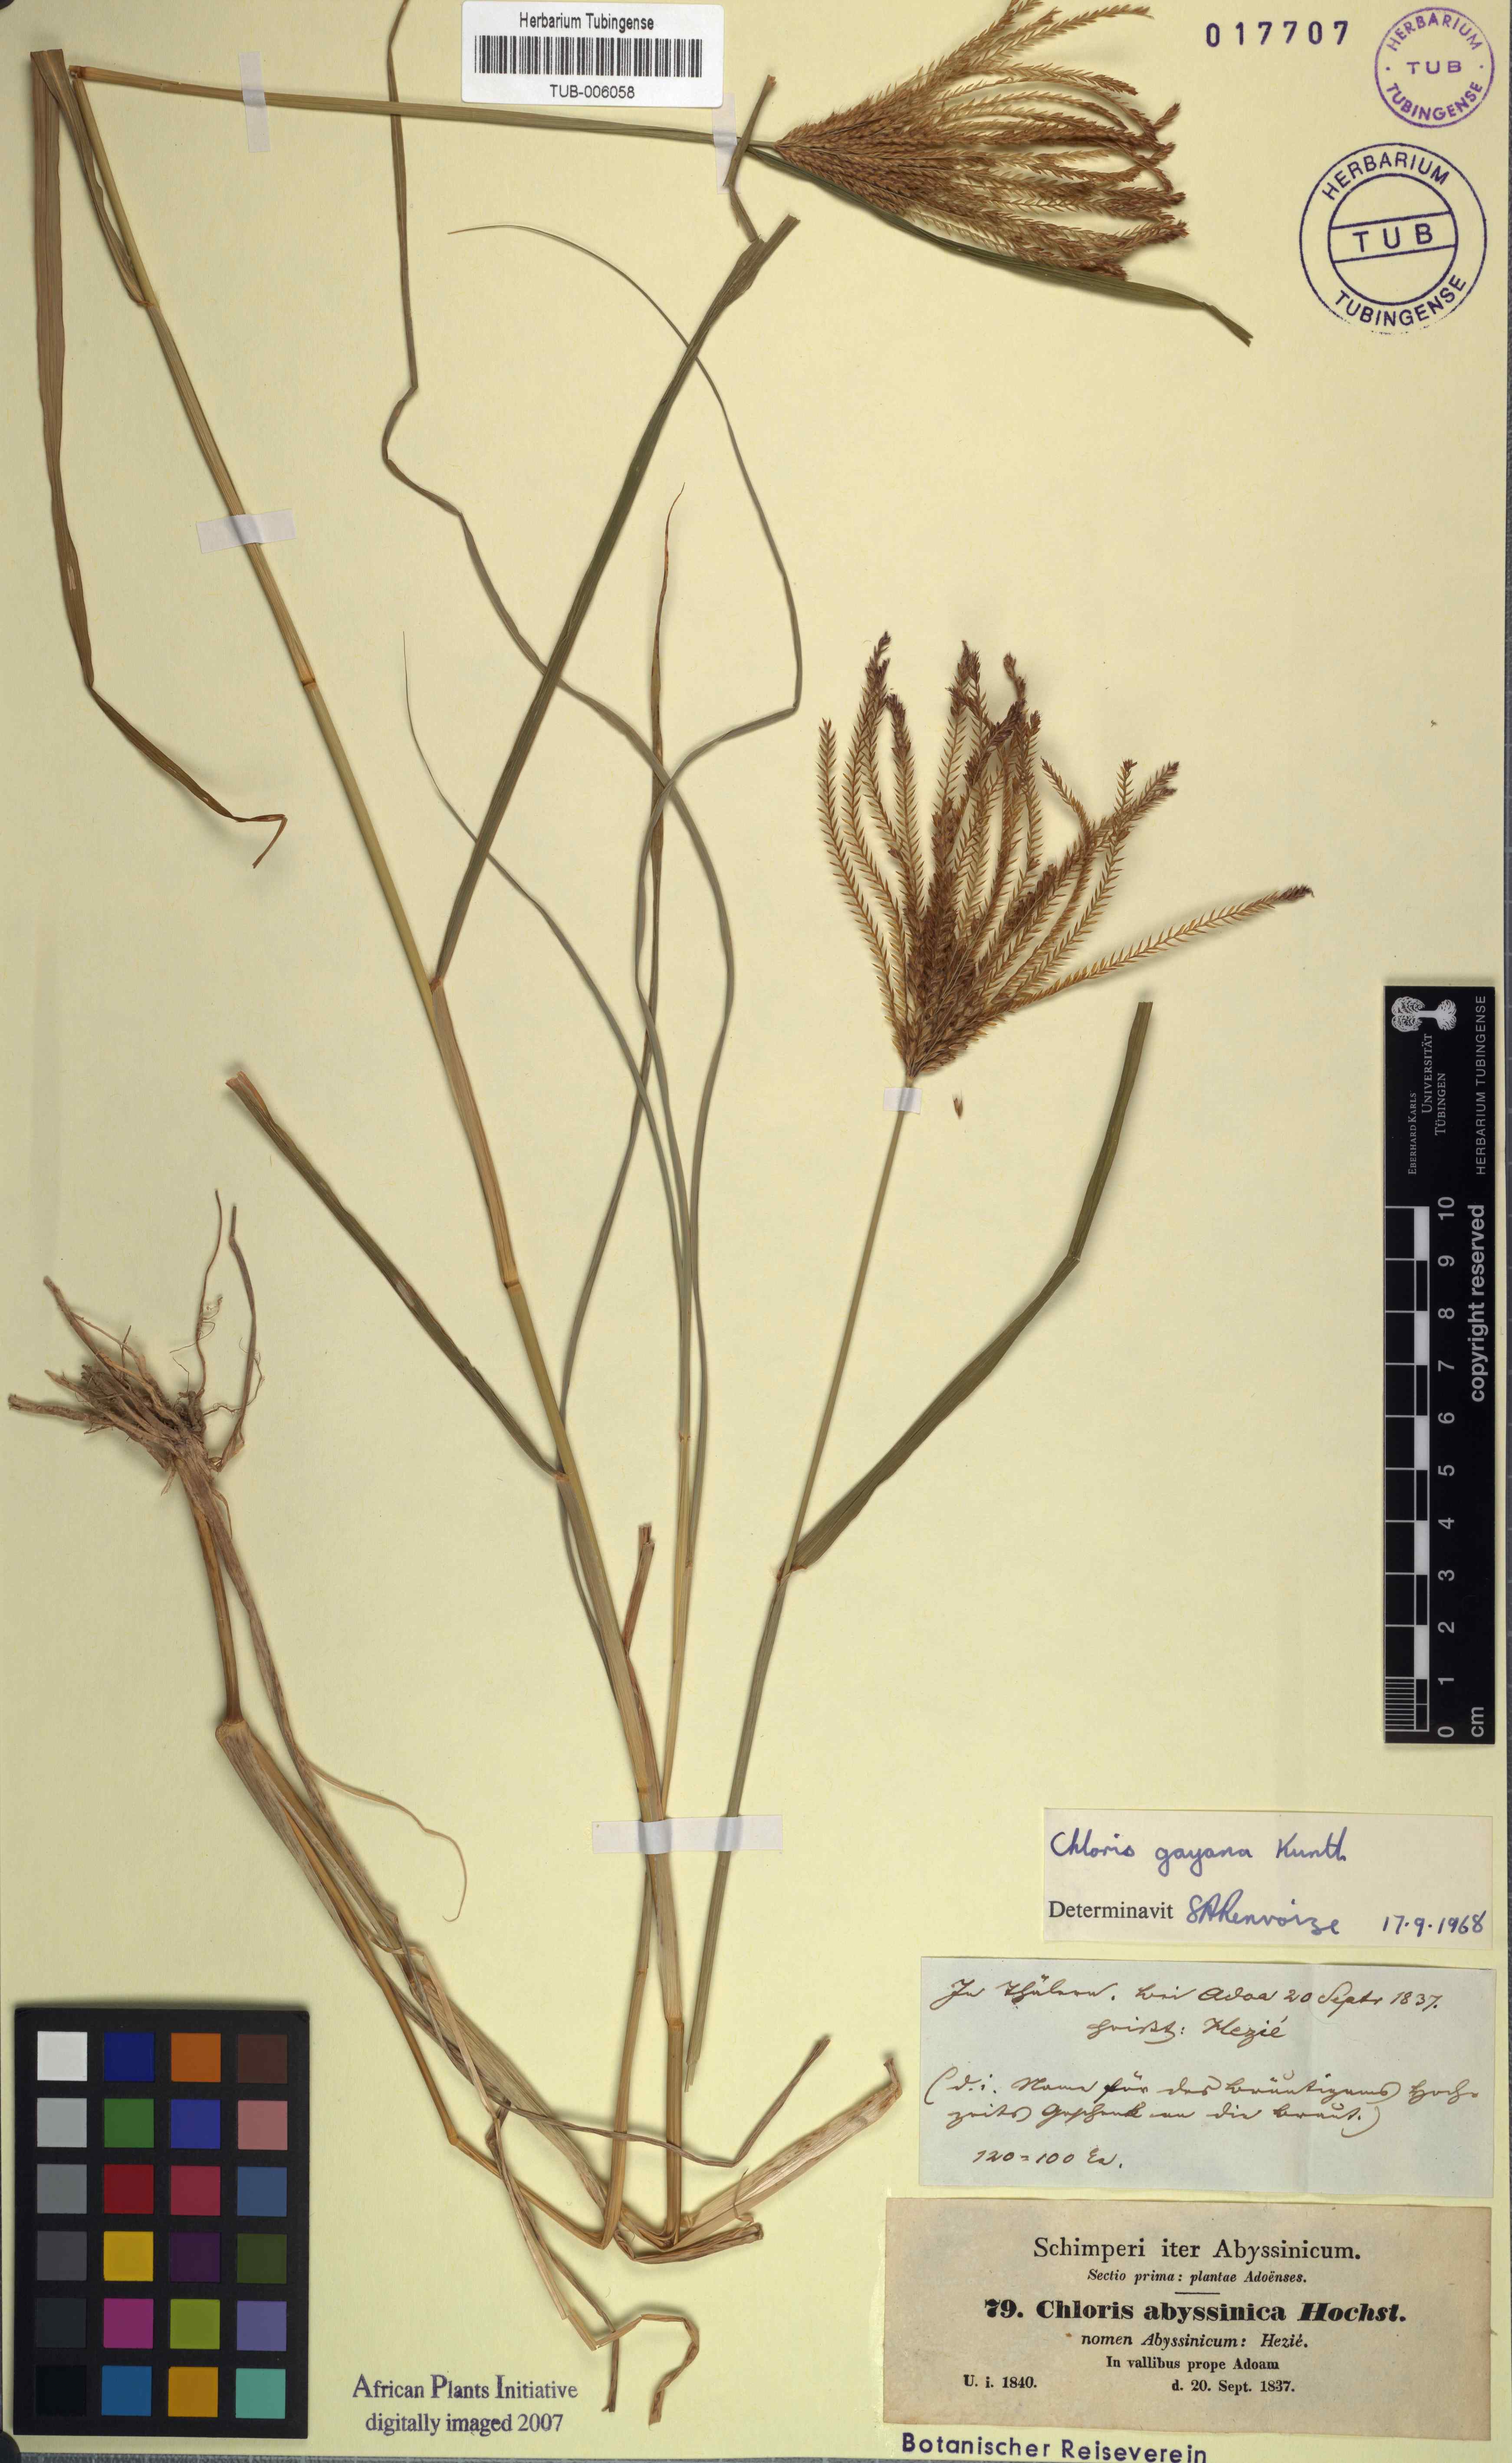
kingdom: Plantae
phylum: Tracheophyta
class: Liliopsida
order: Poales
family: Poaceae
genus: Chloris
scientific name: Chloris gayana
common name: Rhodes grass
